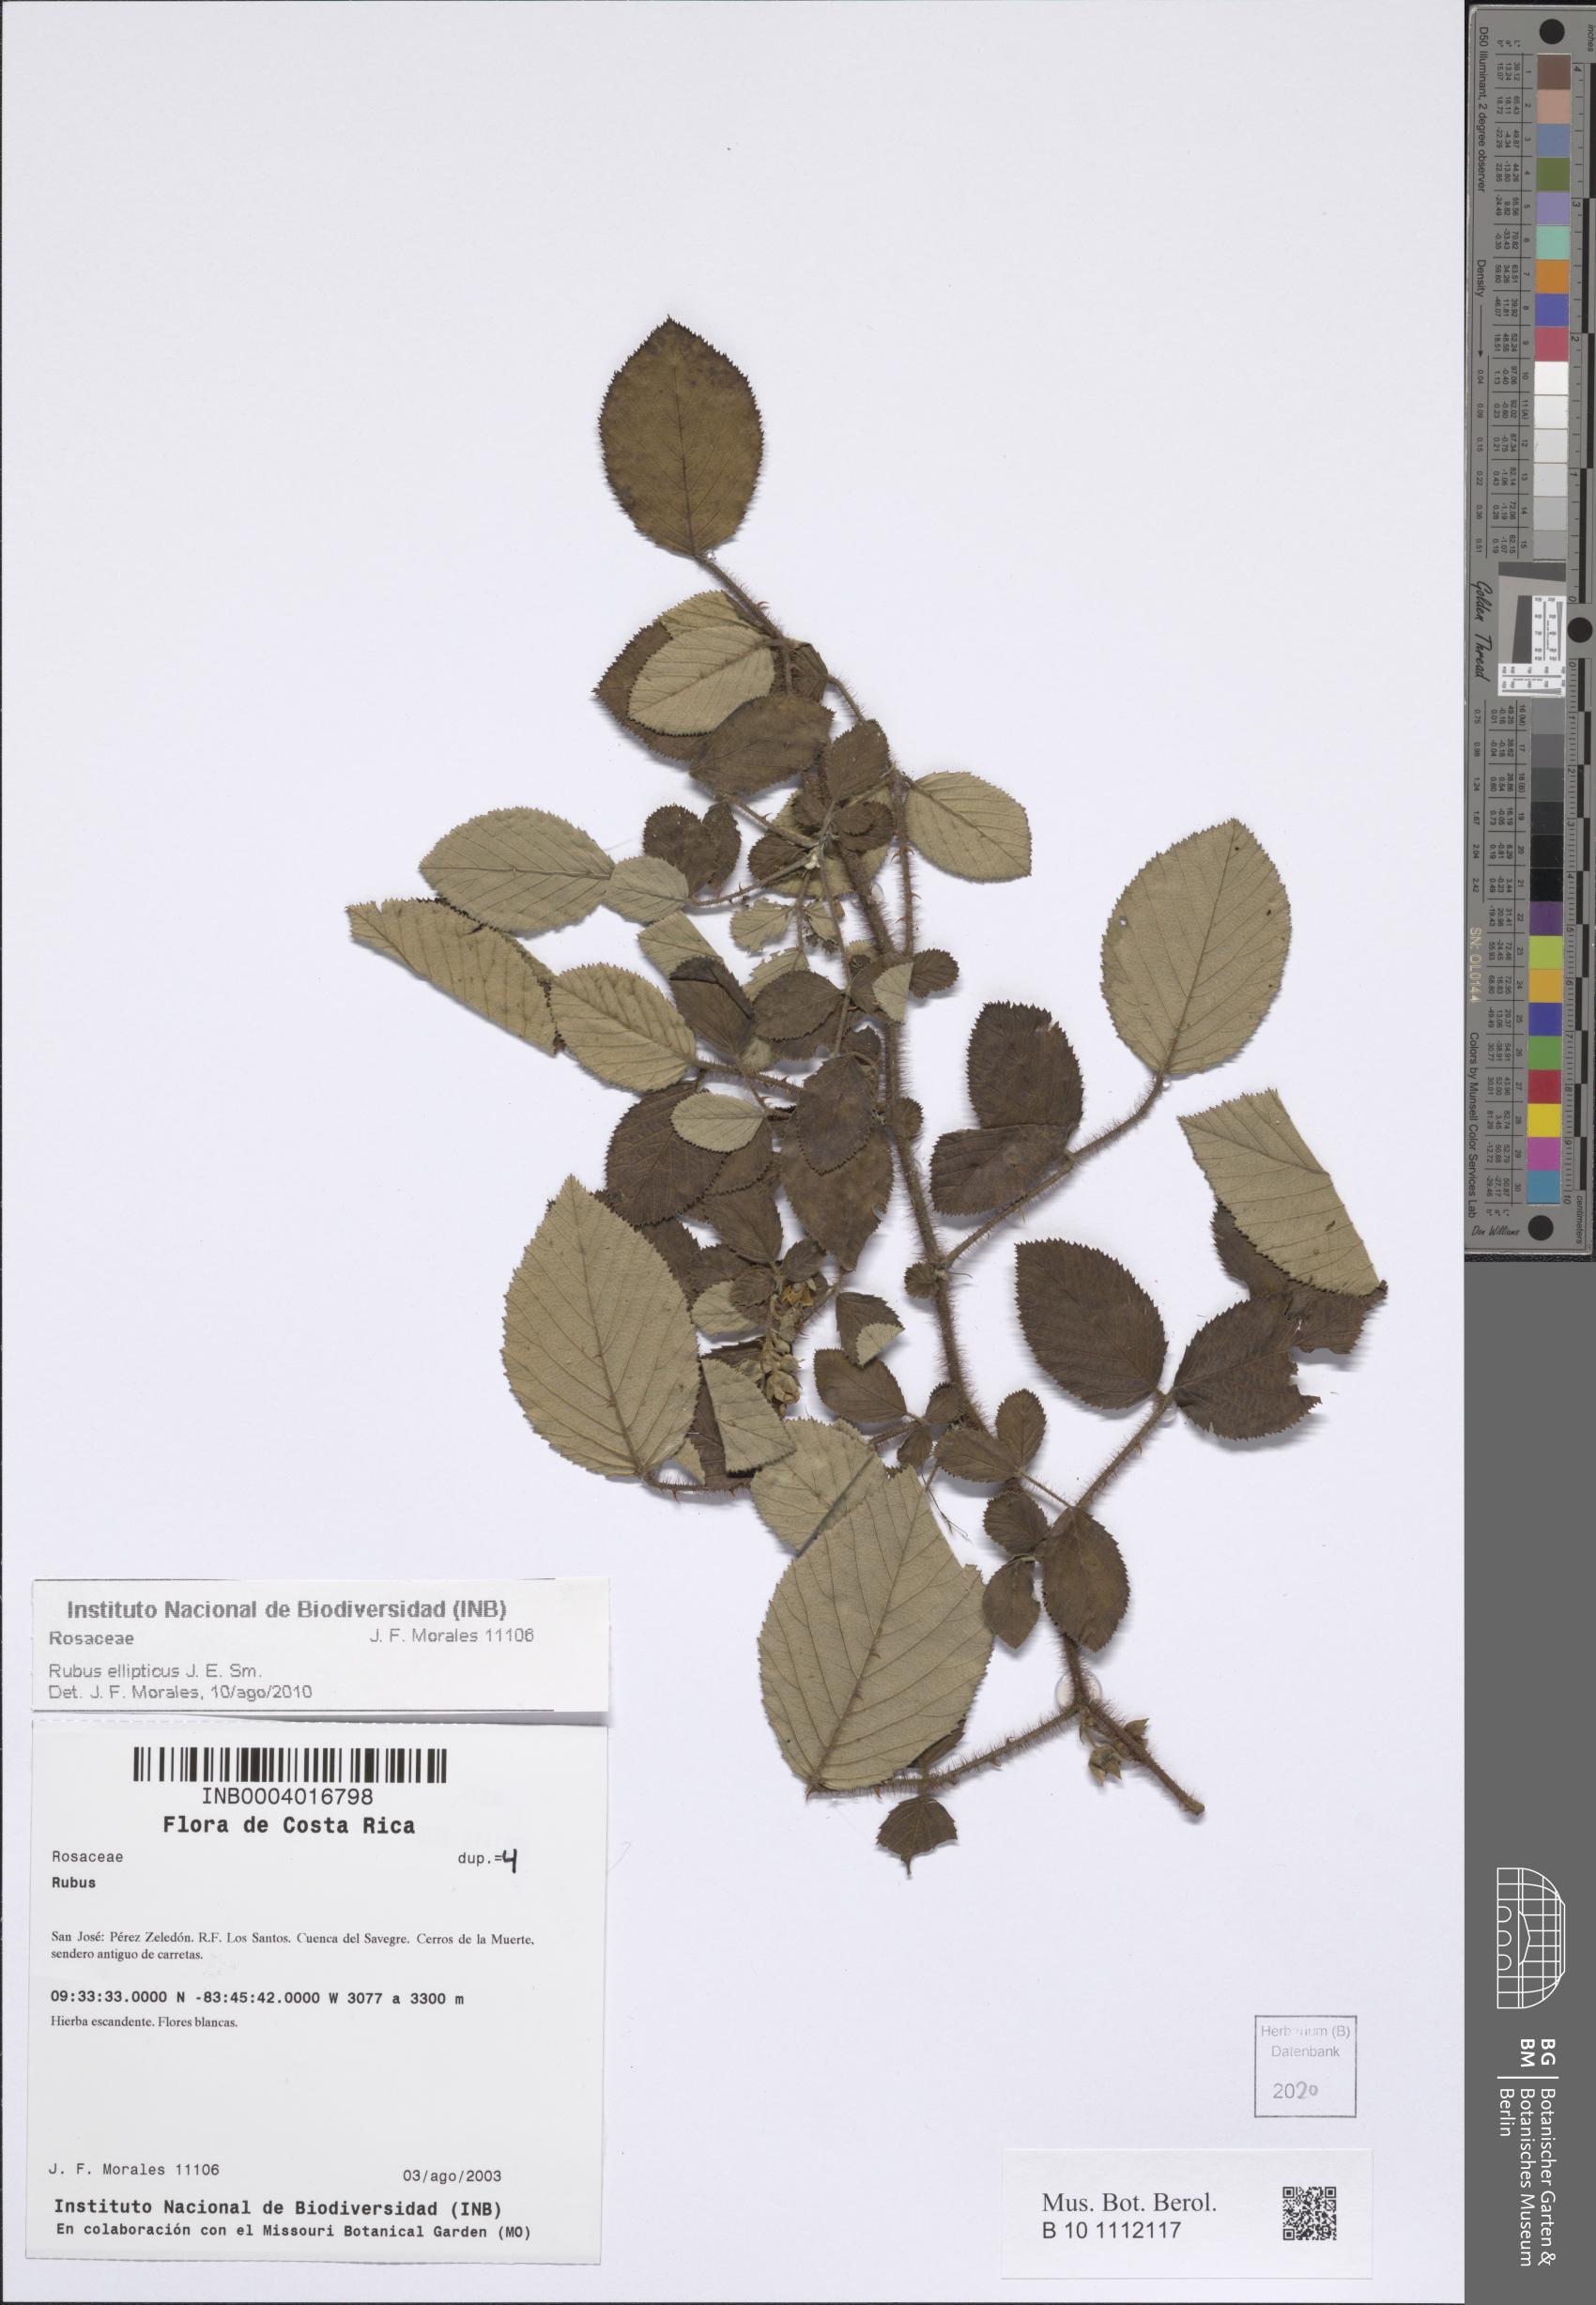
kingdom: Plantae
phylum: Tracheophyta
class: Magnoliopsida
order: Rosales
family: Rosaceae
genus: Rubus
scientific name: Rubus ellipticus
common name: Cheeseberry
